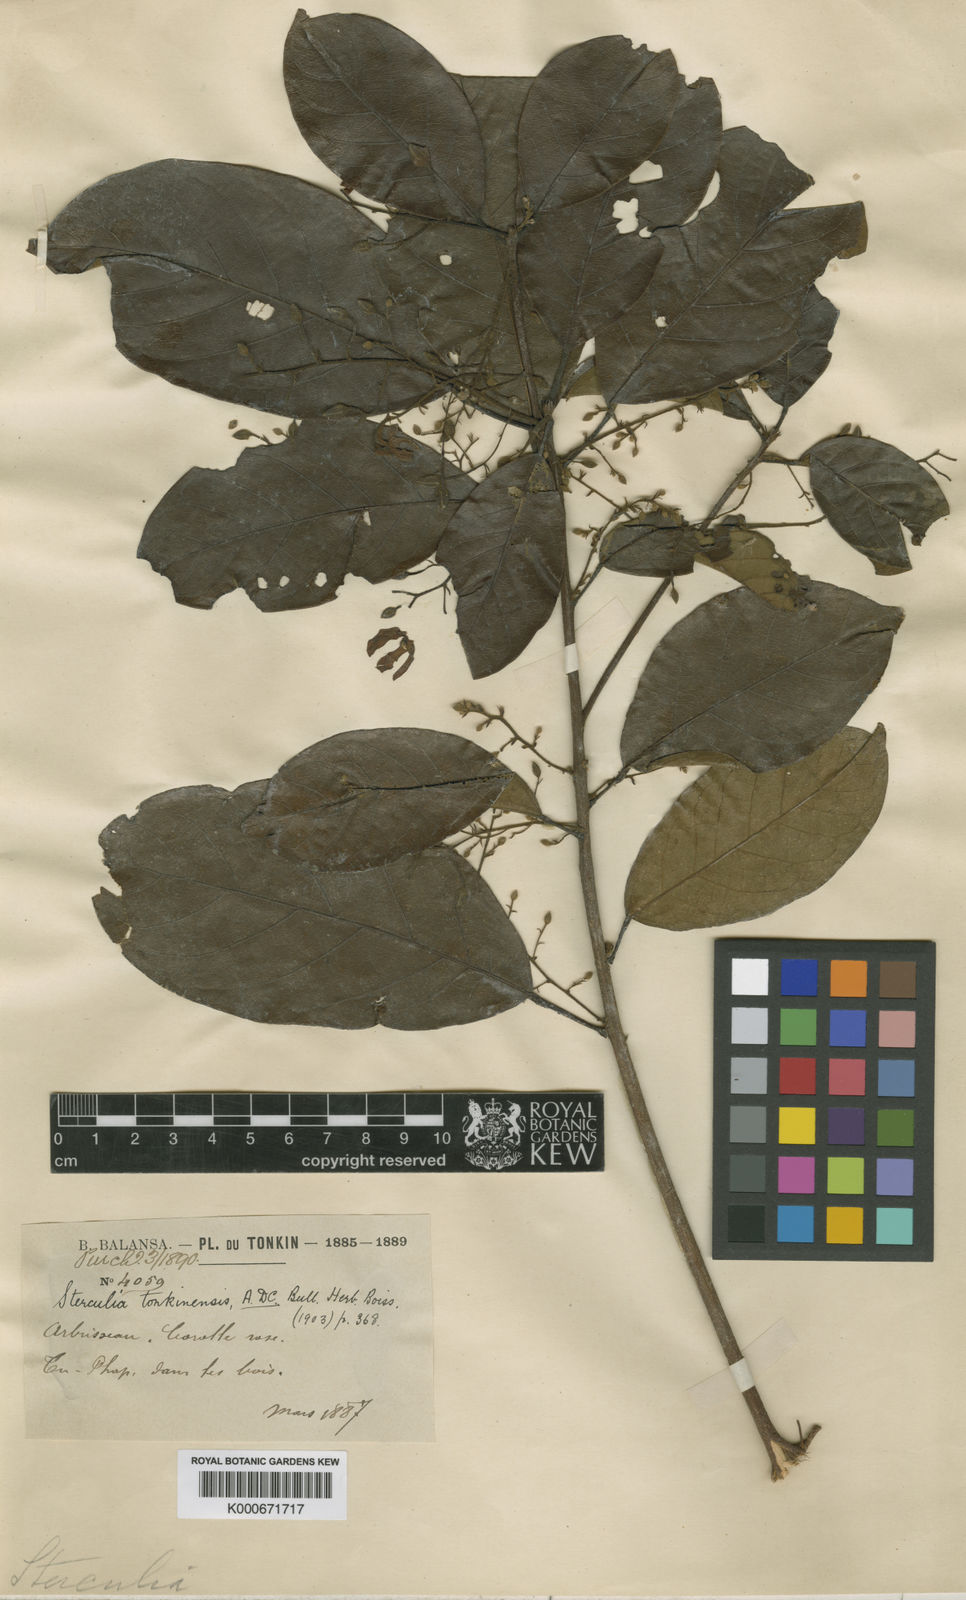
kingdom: Plantae
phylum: Tracheophyta
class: Magnoliopsida
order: Malvales
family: Malvaceae
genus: Sterculia
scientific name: Sterculia lanceolata
